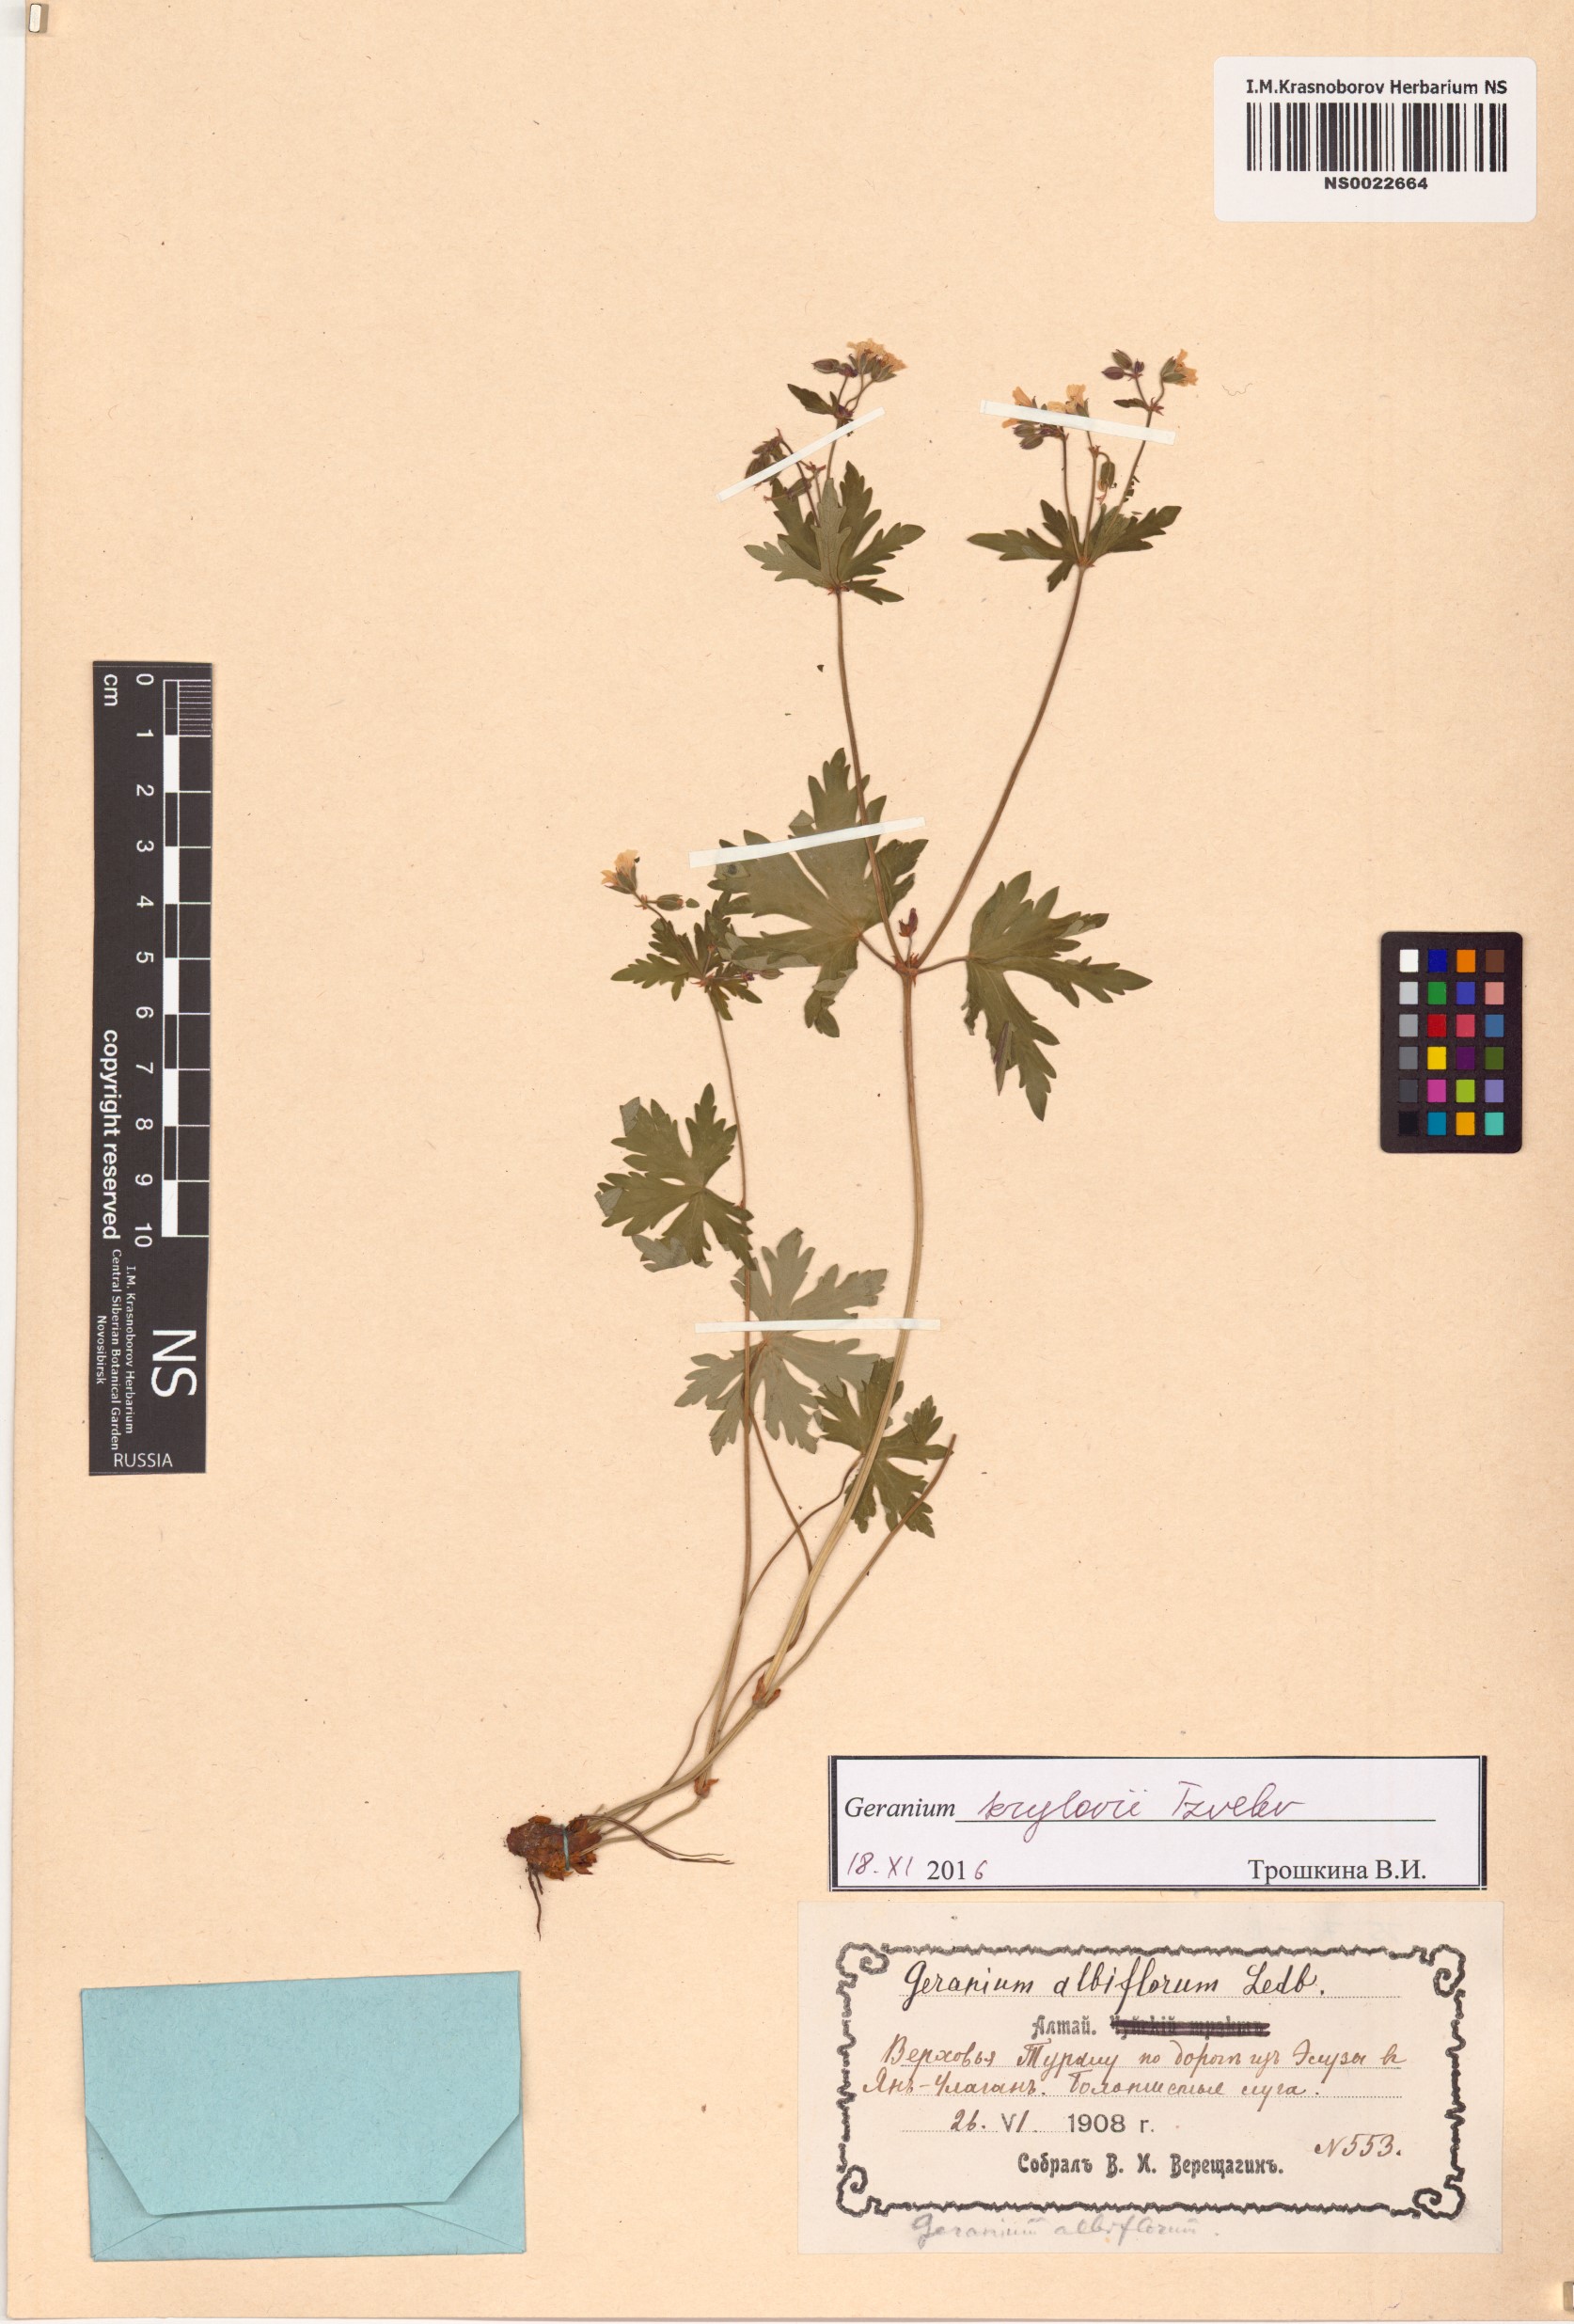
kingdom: Plantae
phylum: Tracheophyta
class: Magnoliopsida
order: Geraniales
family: Geraniaceae
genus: Geranium
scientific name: Geranium sylvaticum
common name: Wood crane's-bill
